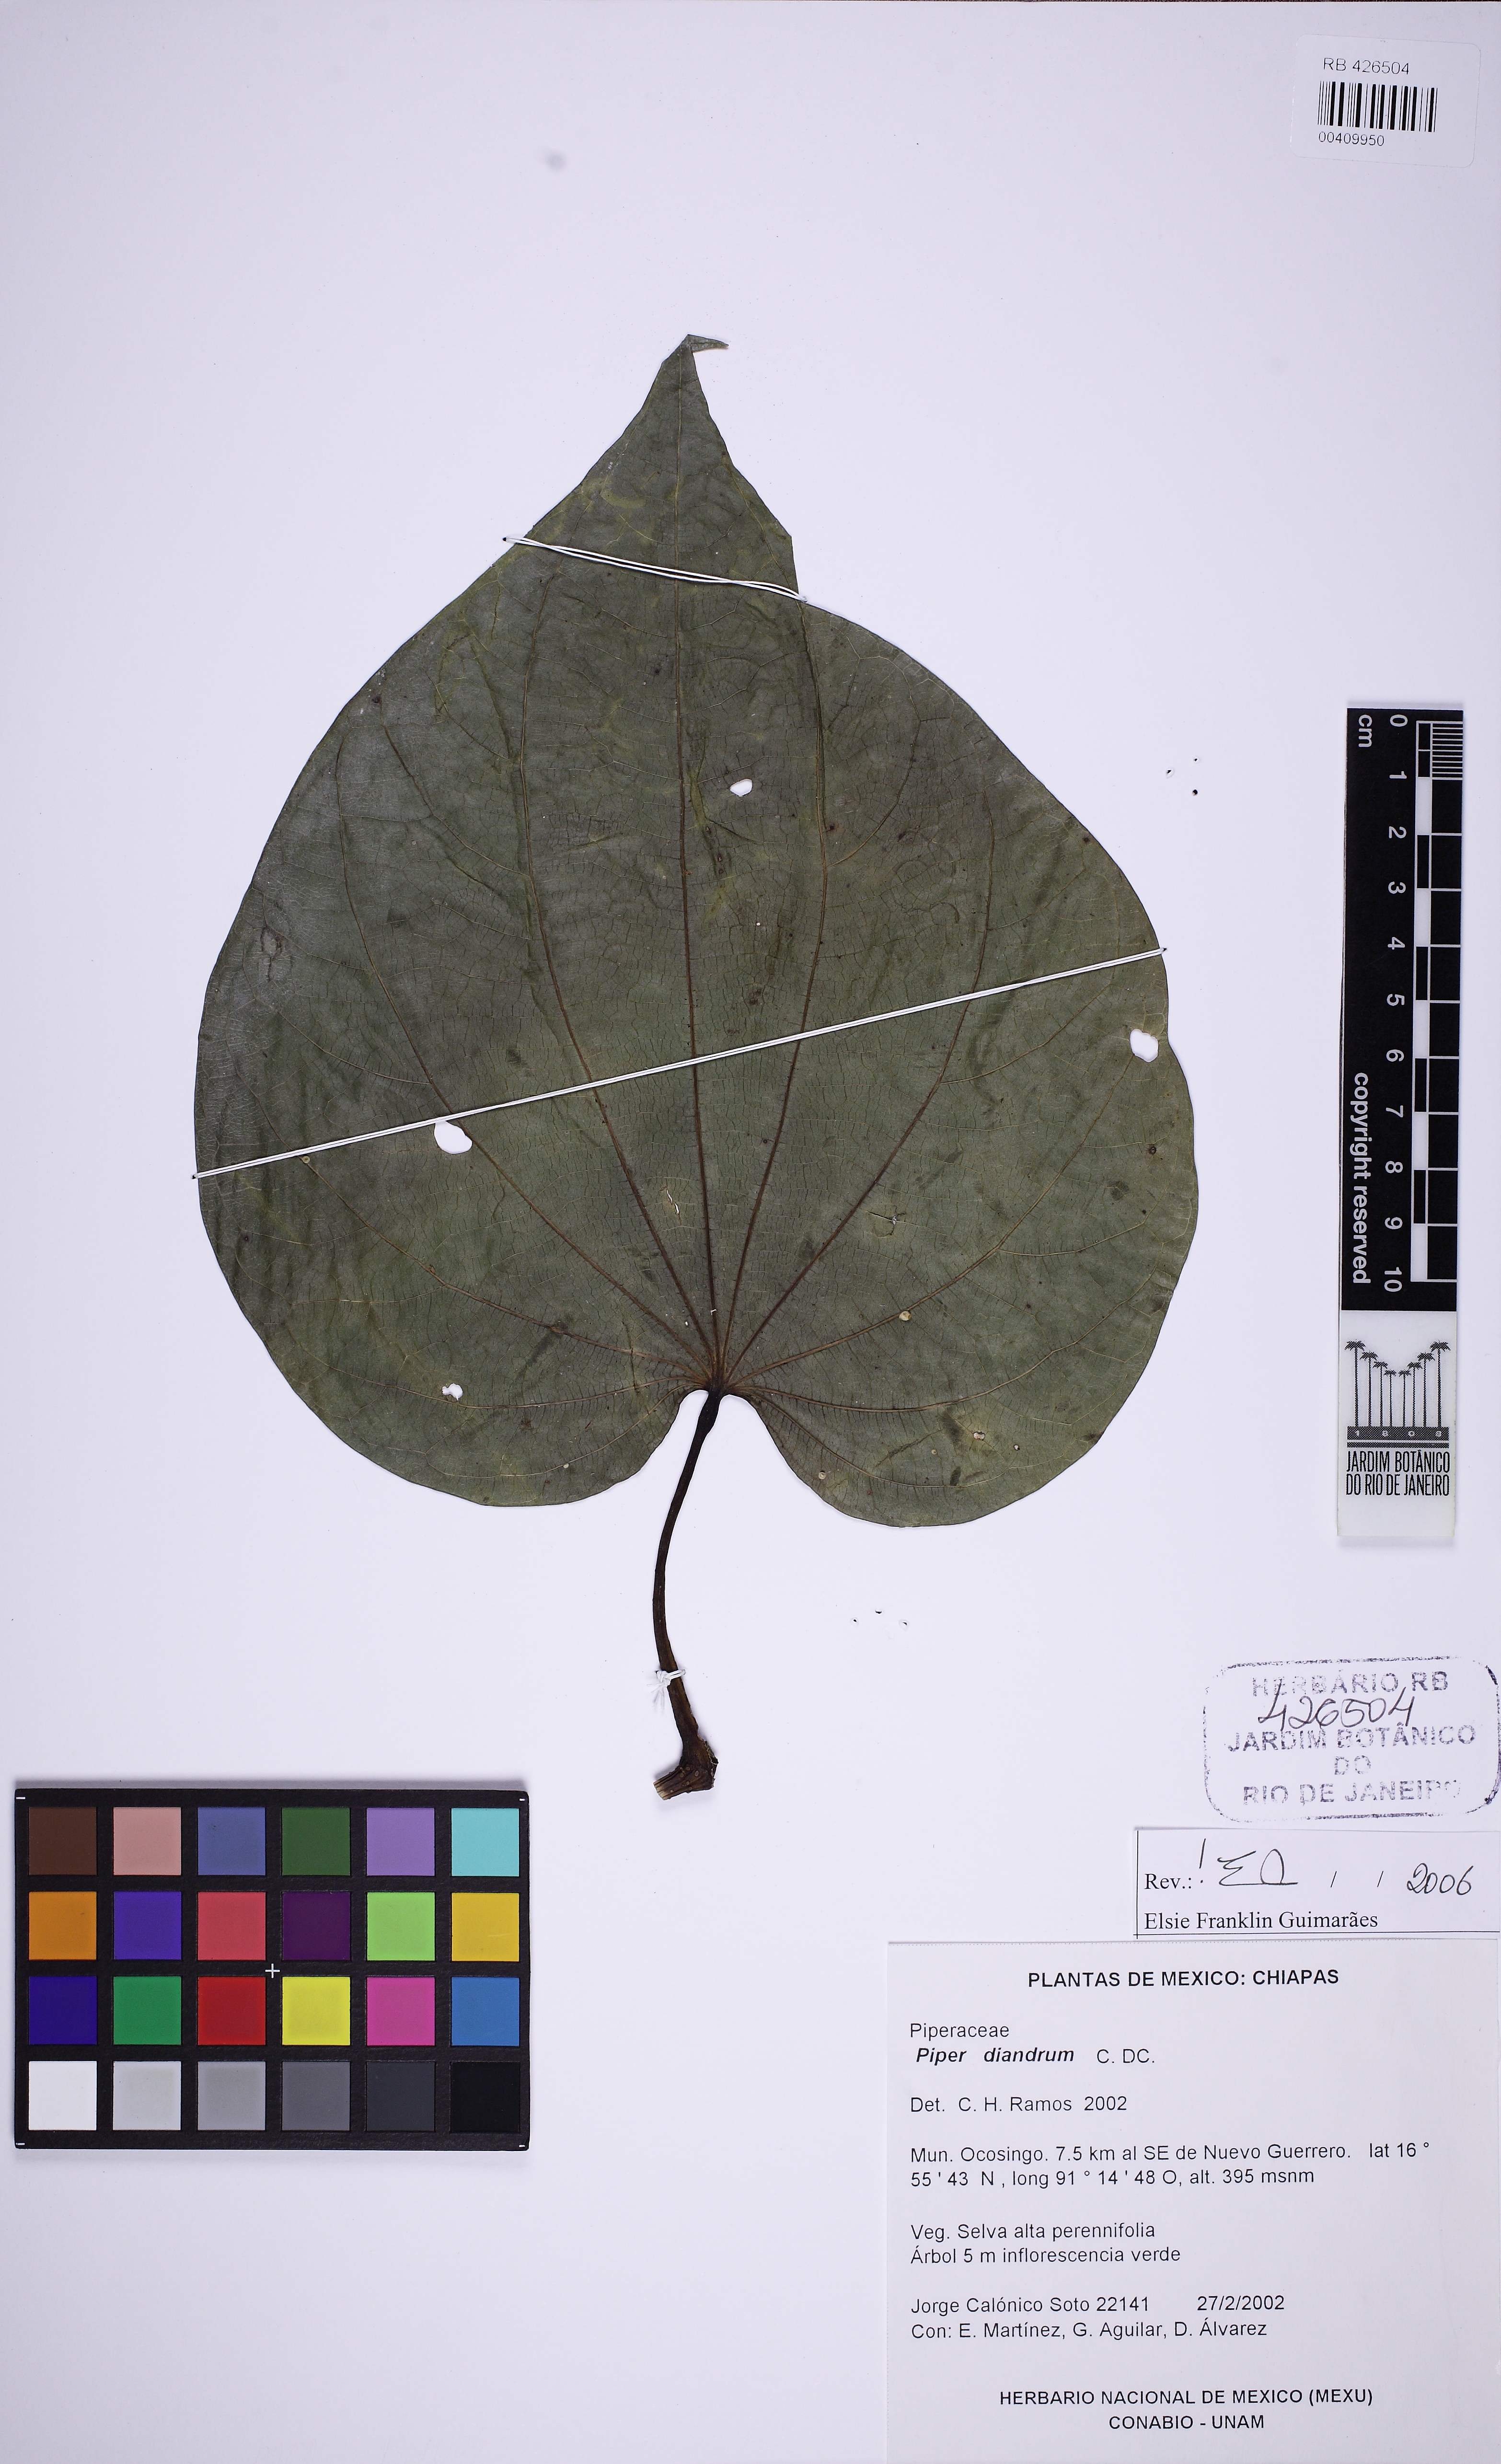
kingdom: Plantae
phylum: Tracheophyta
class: Magnoliopsida
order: Piperales
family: Piperaceae
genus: Piper
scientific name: Piper patulum
